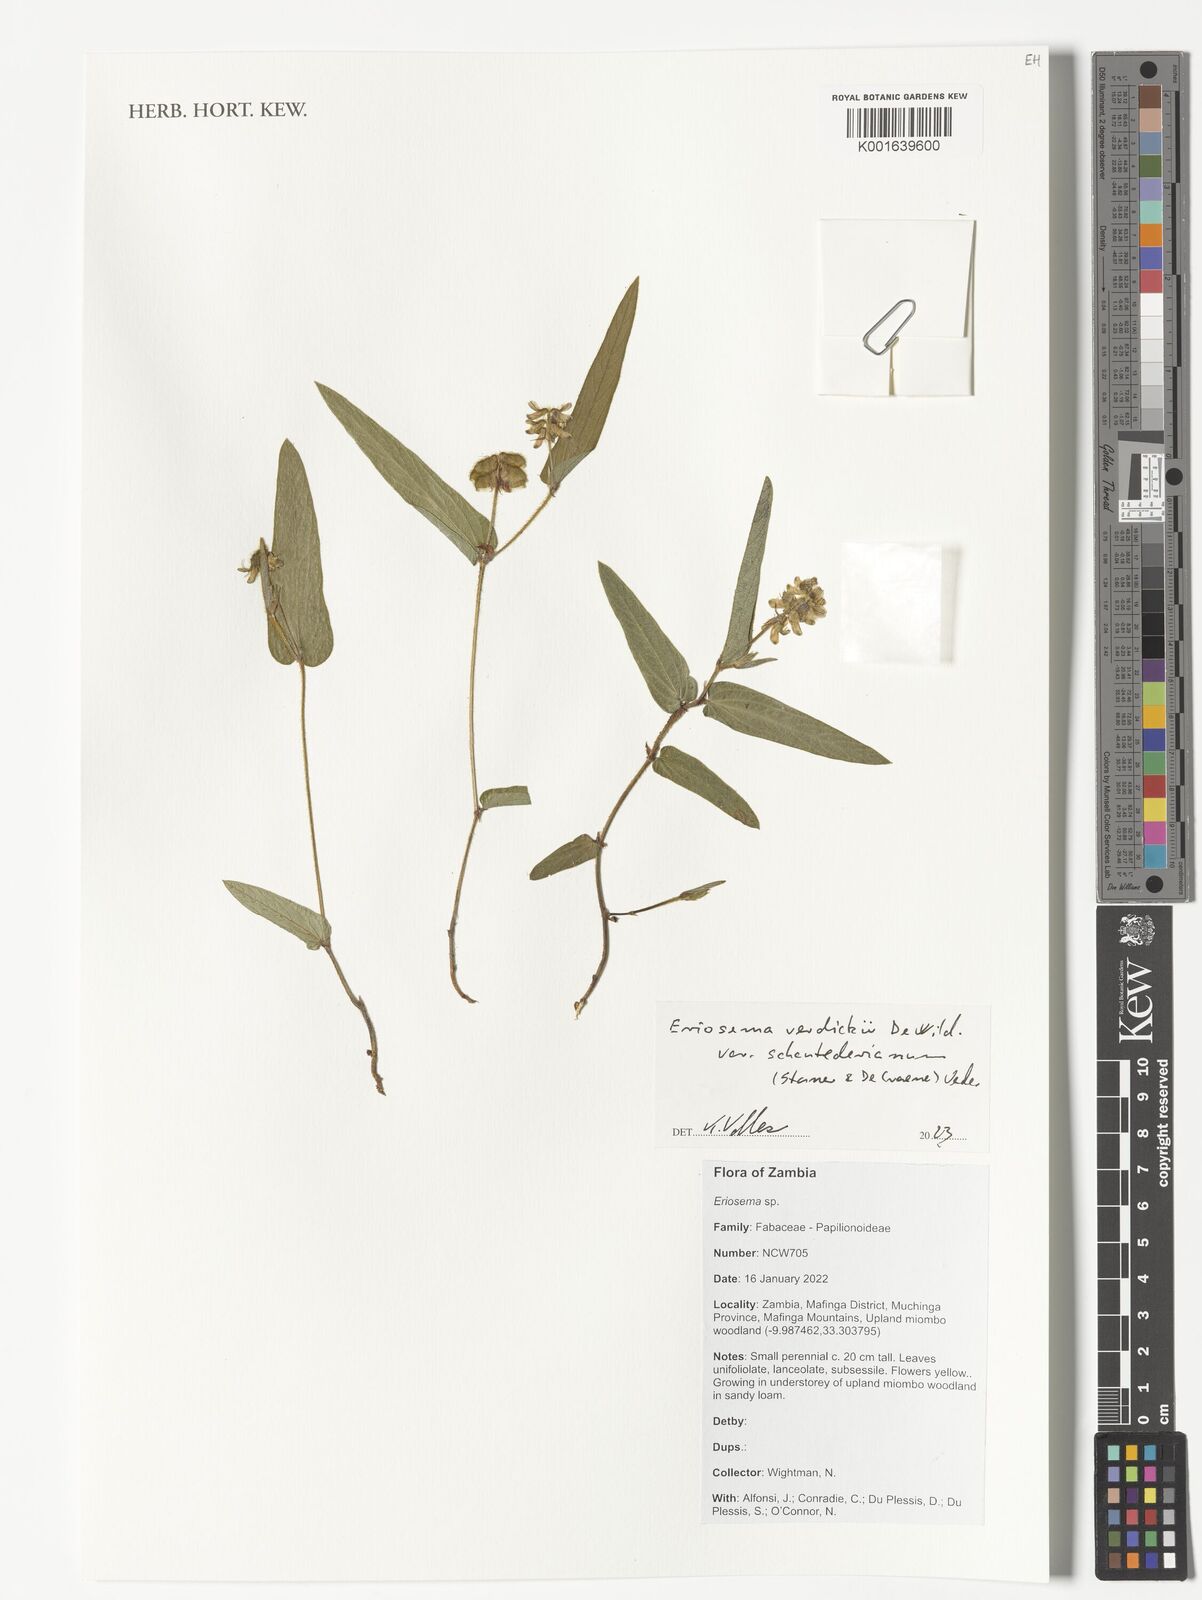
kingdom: Plantae
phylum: Tracheophyta
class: Magnoliopsida
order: Fabales
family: Fabaceae
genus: Eriosema
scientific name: Eriosema verdickii
